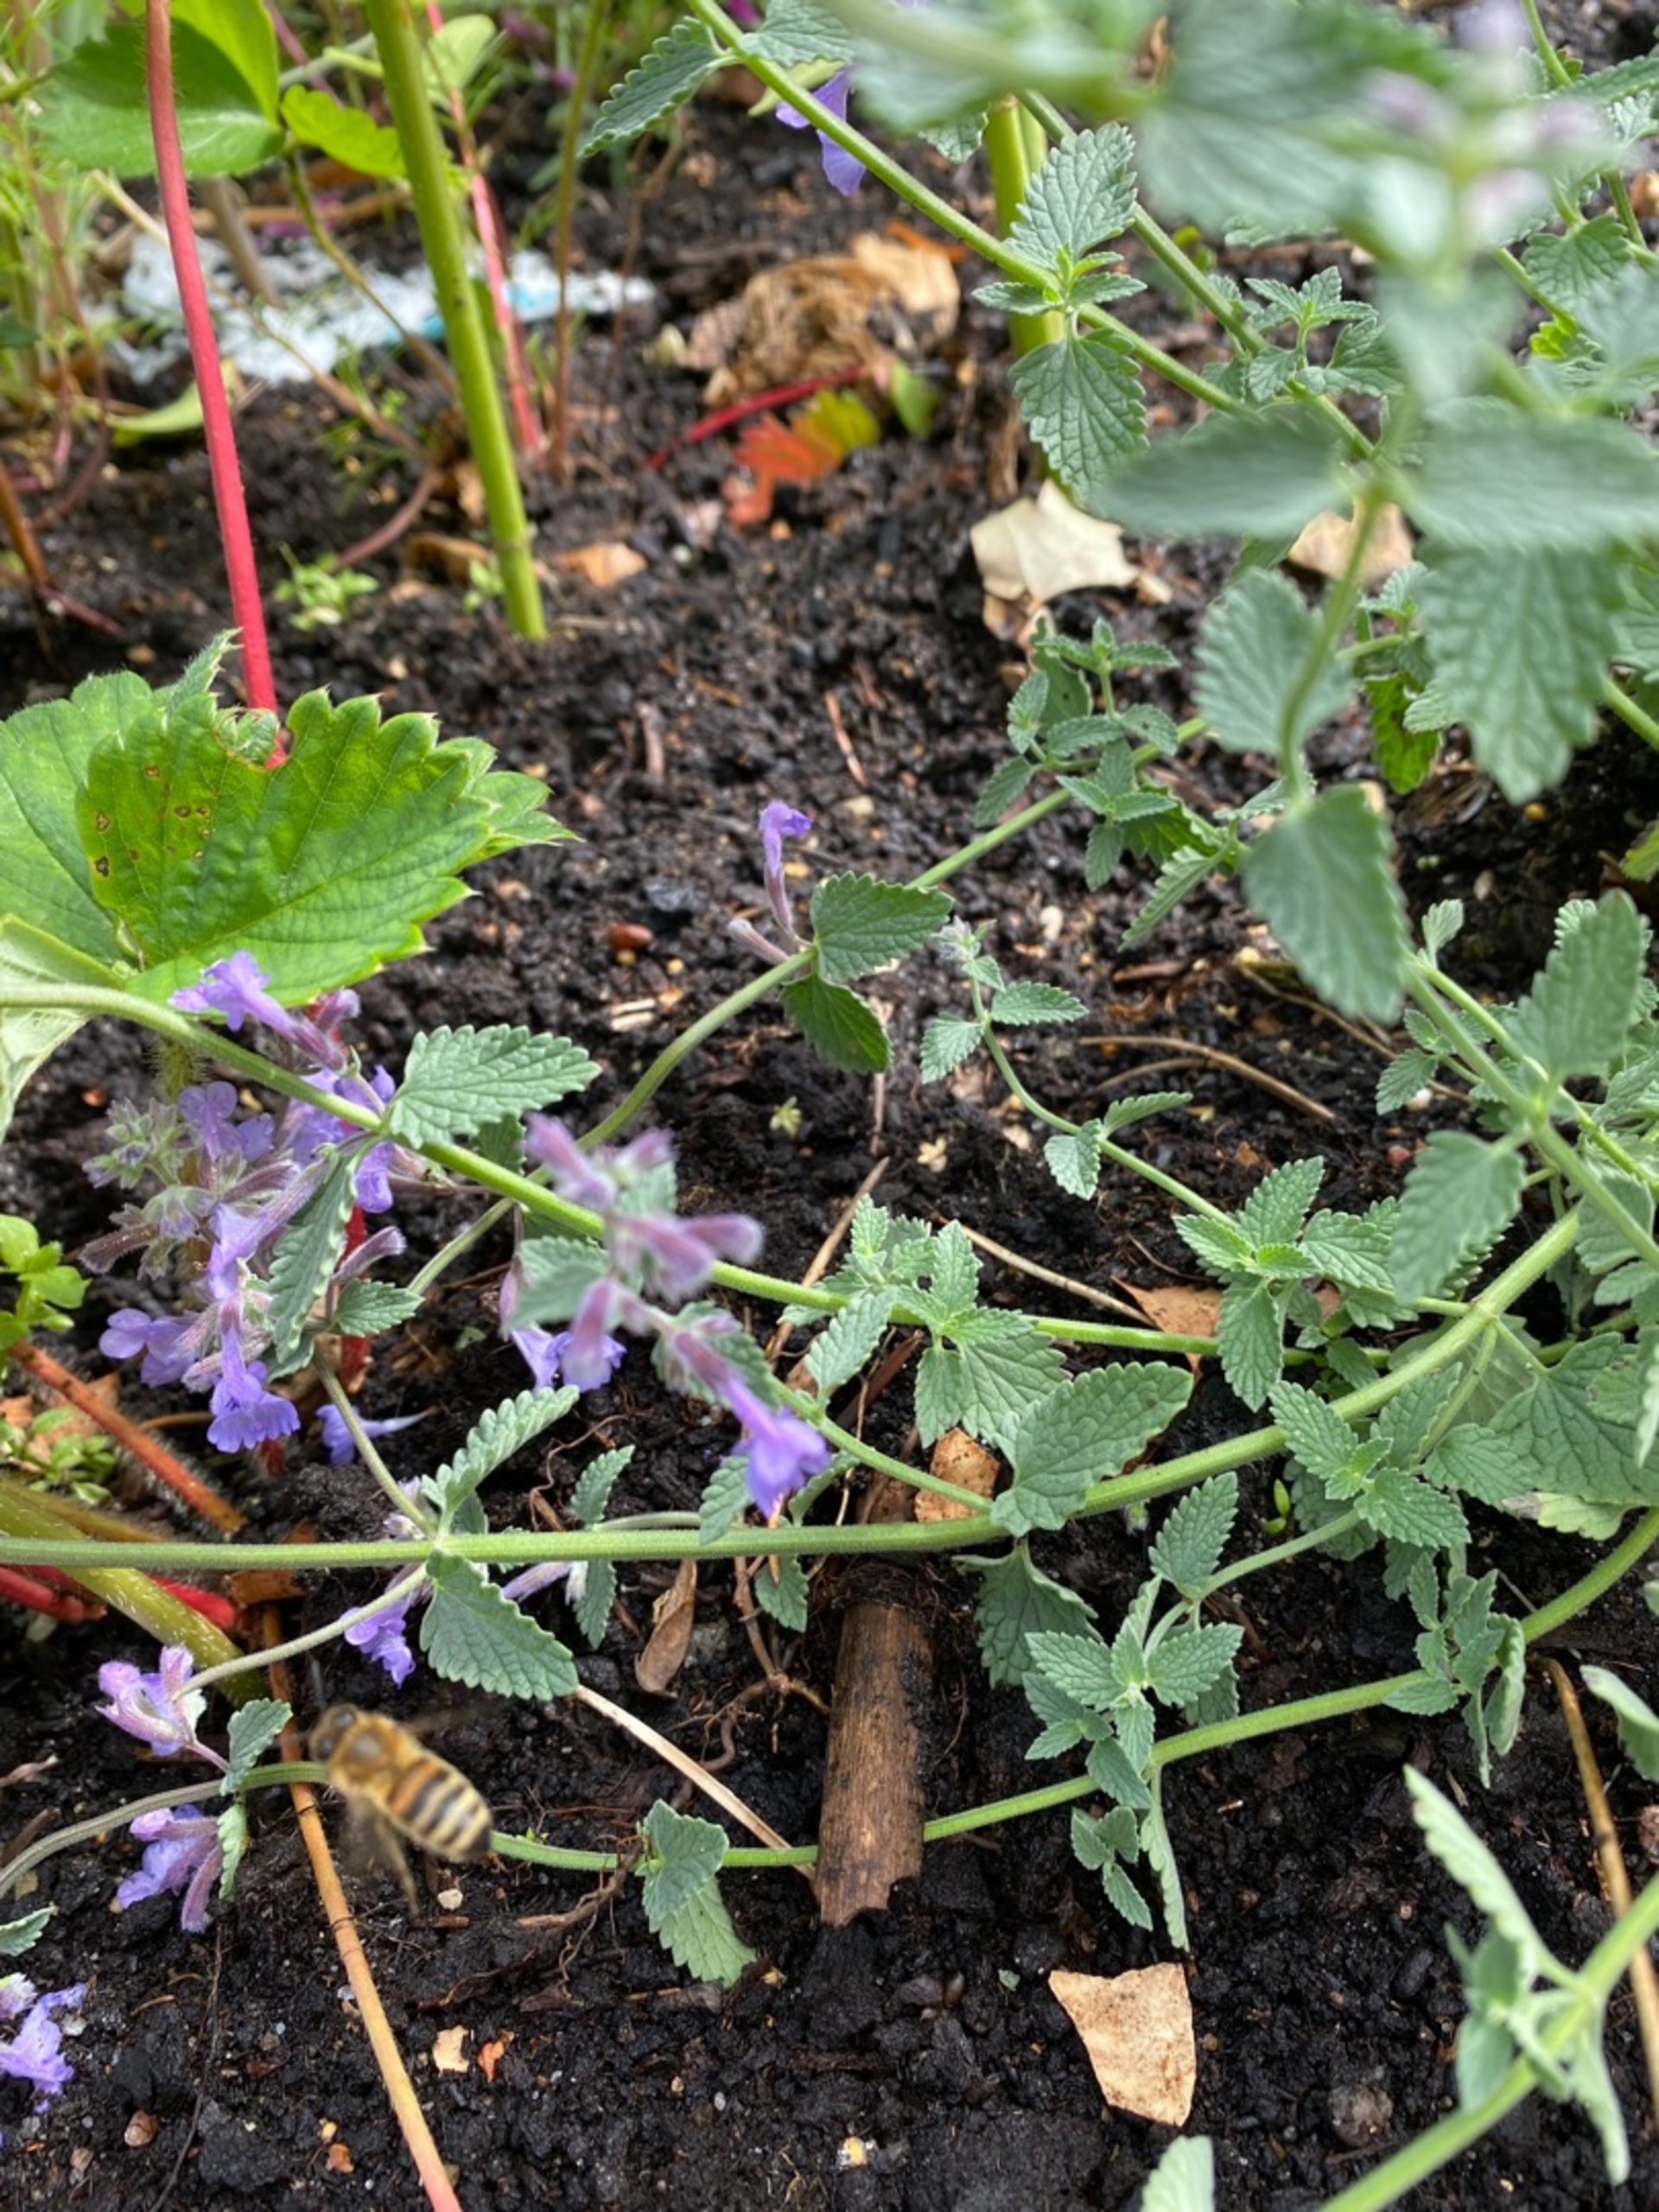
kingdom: Animalia
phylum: Arthropoda
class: Insecta
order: Hymenoptera
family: Apidae
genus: Apis
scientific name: Apis mellifera
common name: Honningbi
